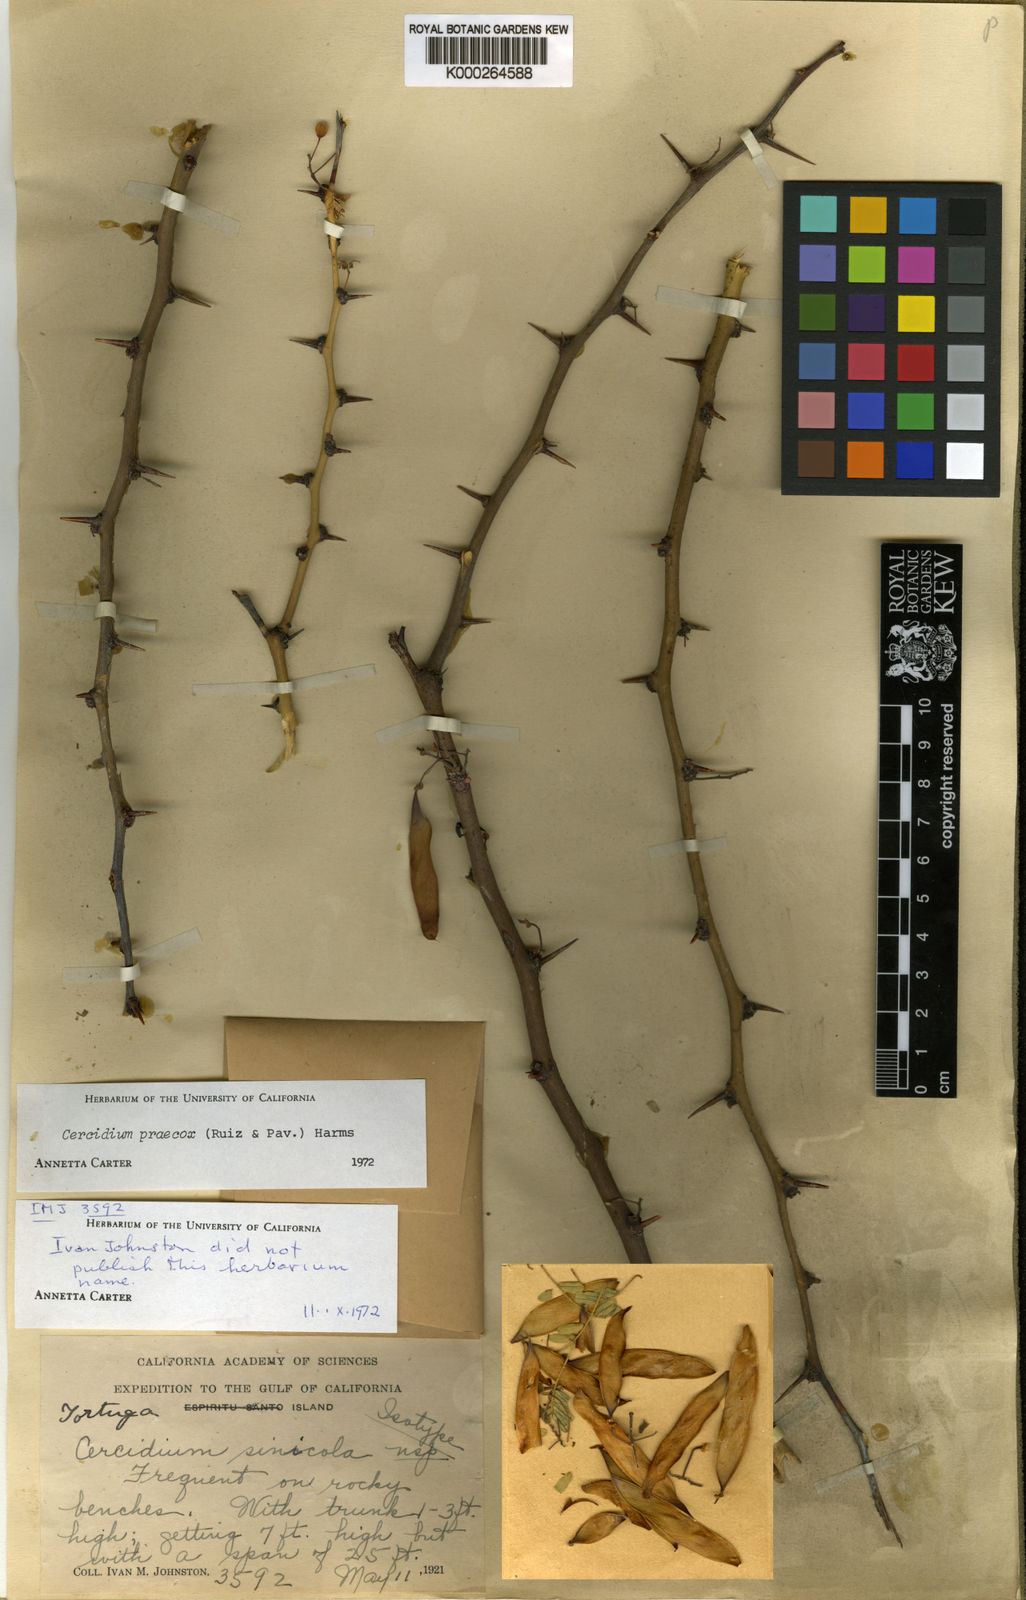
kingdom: Plantae
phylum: Chlorophyta
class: Chlorophyceae
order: Volvocales
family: Chlamydomonadaceae
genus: Cercidium
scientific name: Cercidium
